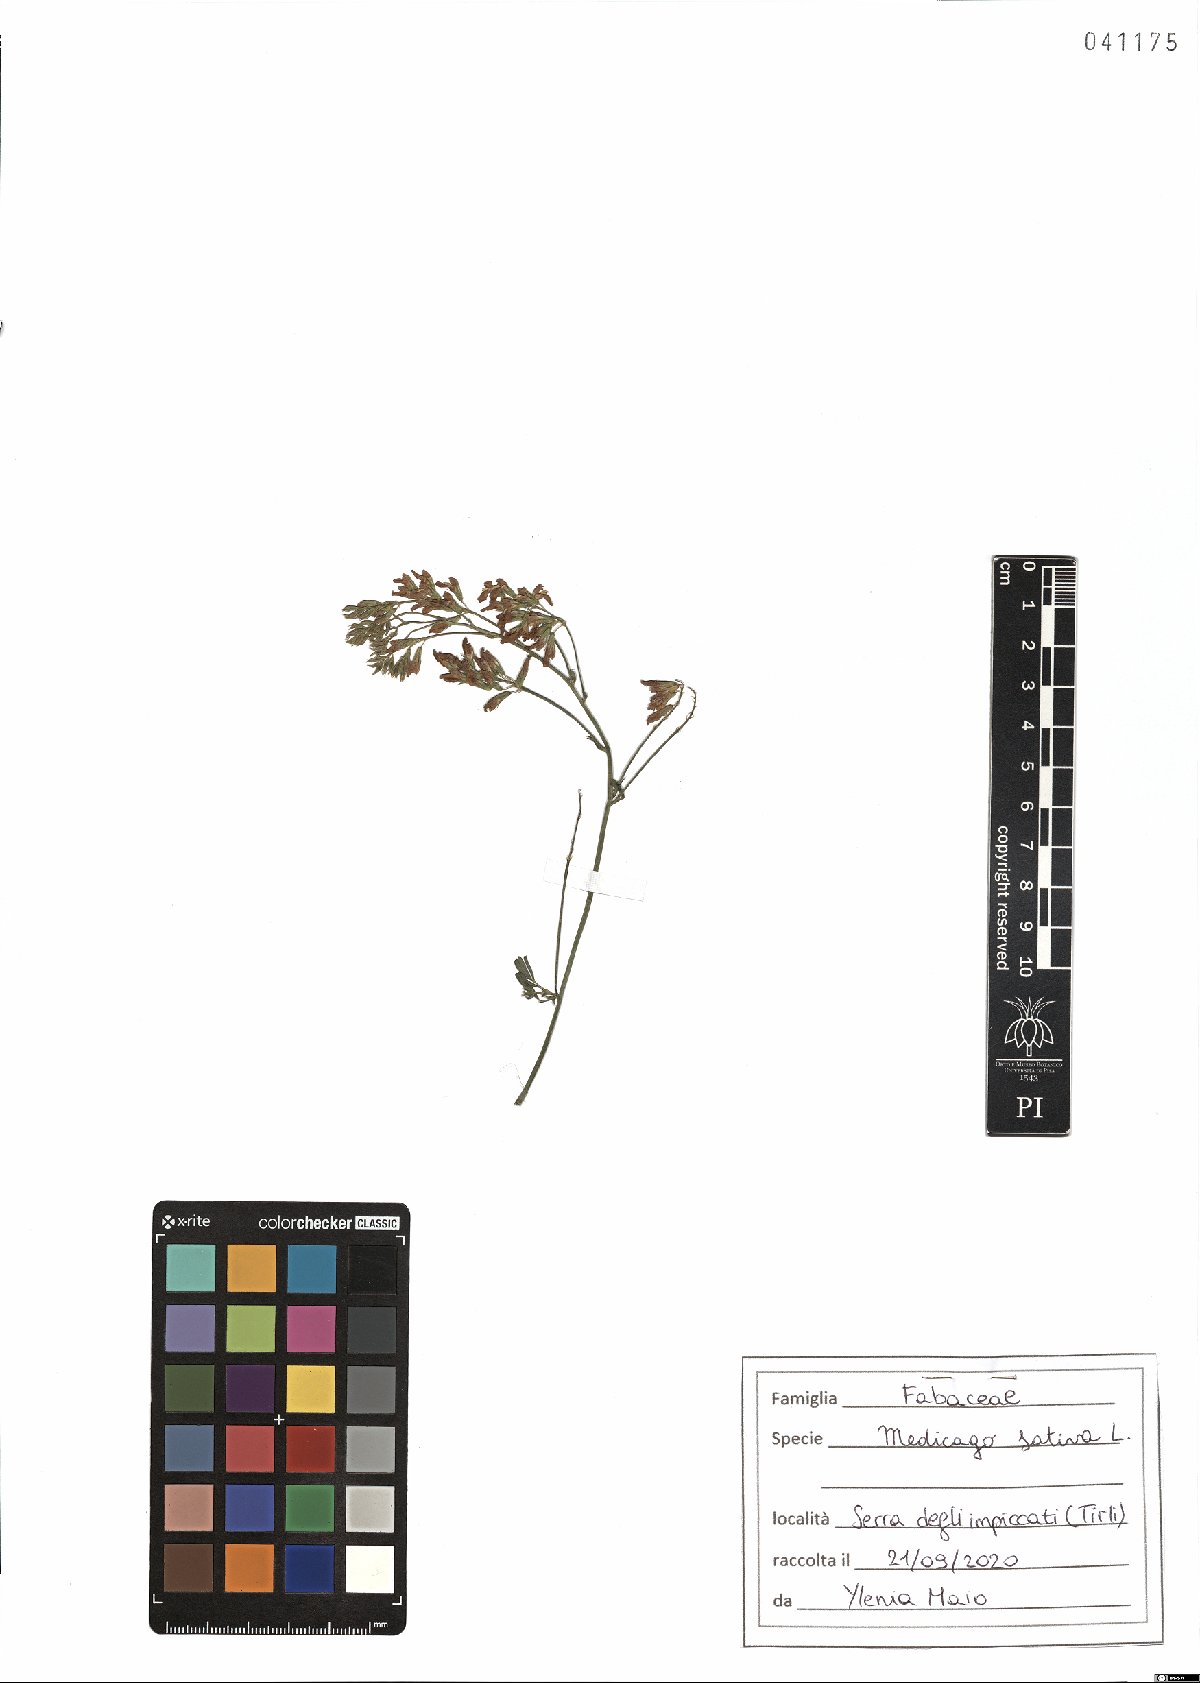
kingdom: Plantae
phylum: Tracheophyta
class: Magnoliopsida
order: Fabales
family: Fabaceae
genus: Medicago
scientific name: Medicago sativa
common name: Alfalfa
